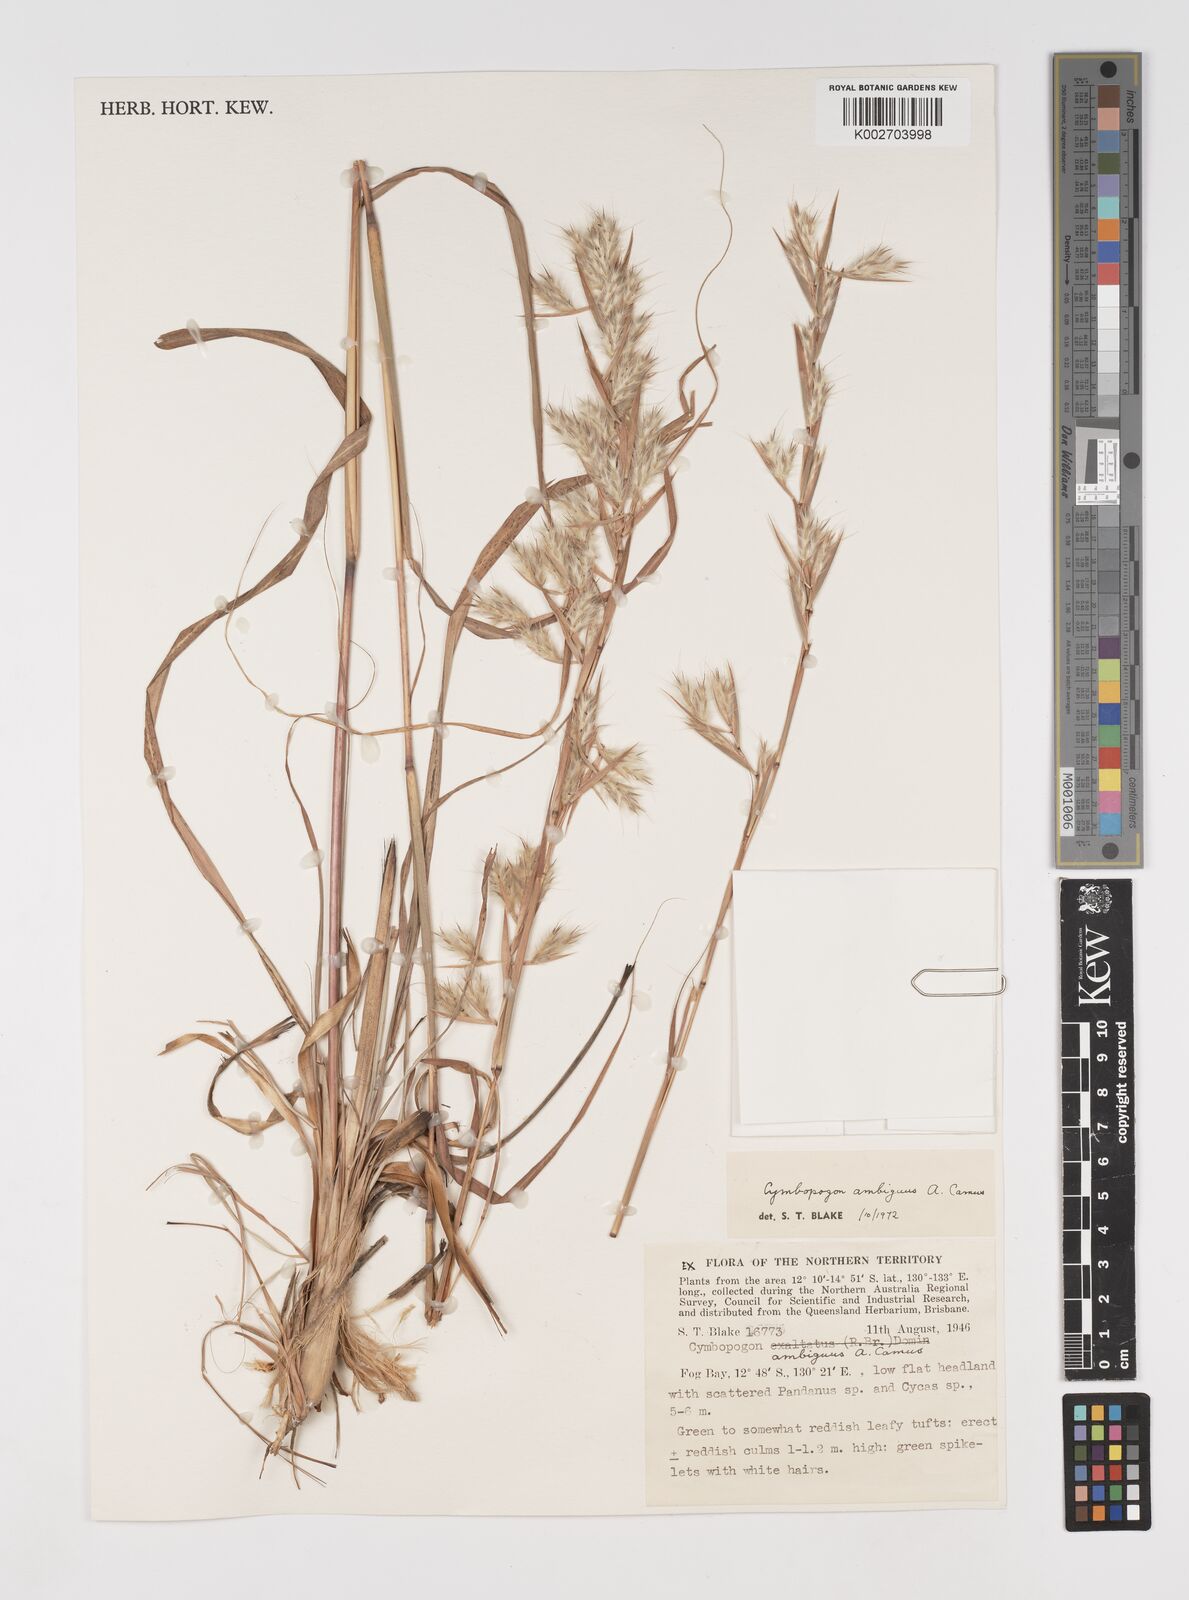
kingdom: Plantae
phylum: Tracheophyta
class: Liliopsida
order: Poales
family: Poaceae
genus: Cymbopogon
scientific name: Cymbopogon ambiguus
